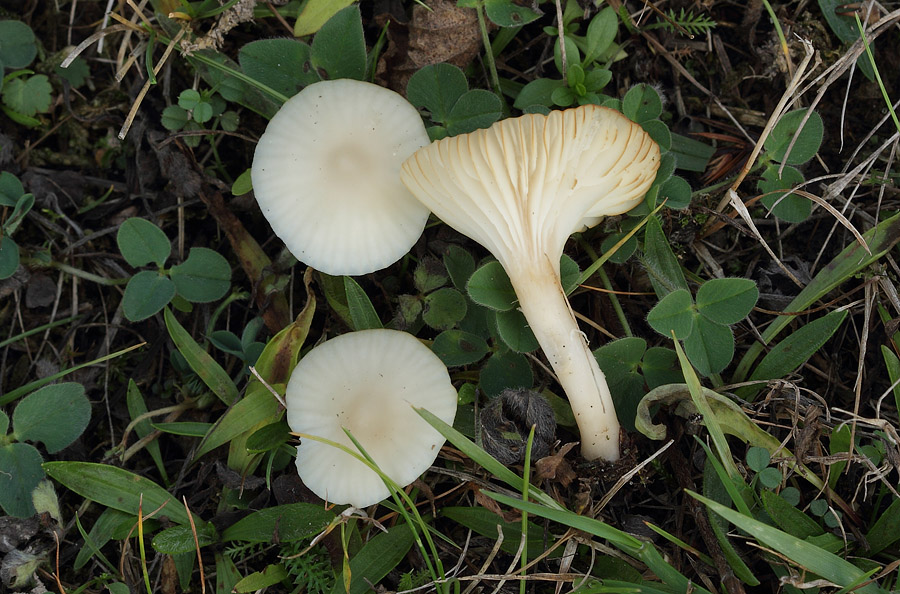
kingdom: Fungi
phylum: Basidiomycota
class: Agaricomycetes
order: Agaricales
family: Hygrophoraceae
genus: Cuphophyllus
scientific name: Cuphophyllus virgineus
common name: snehvid vokshat
